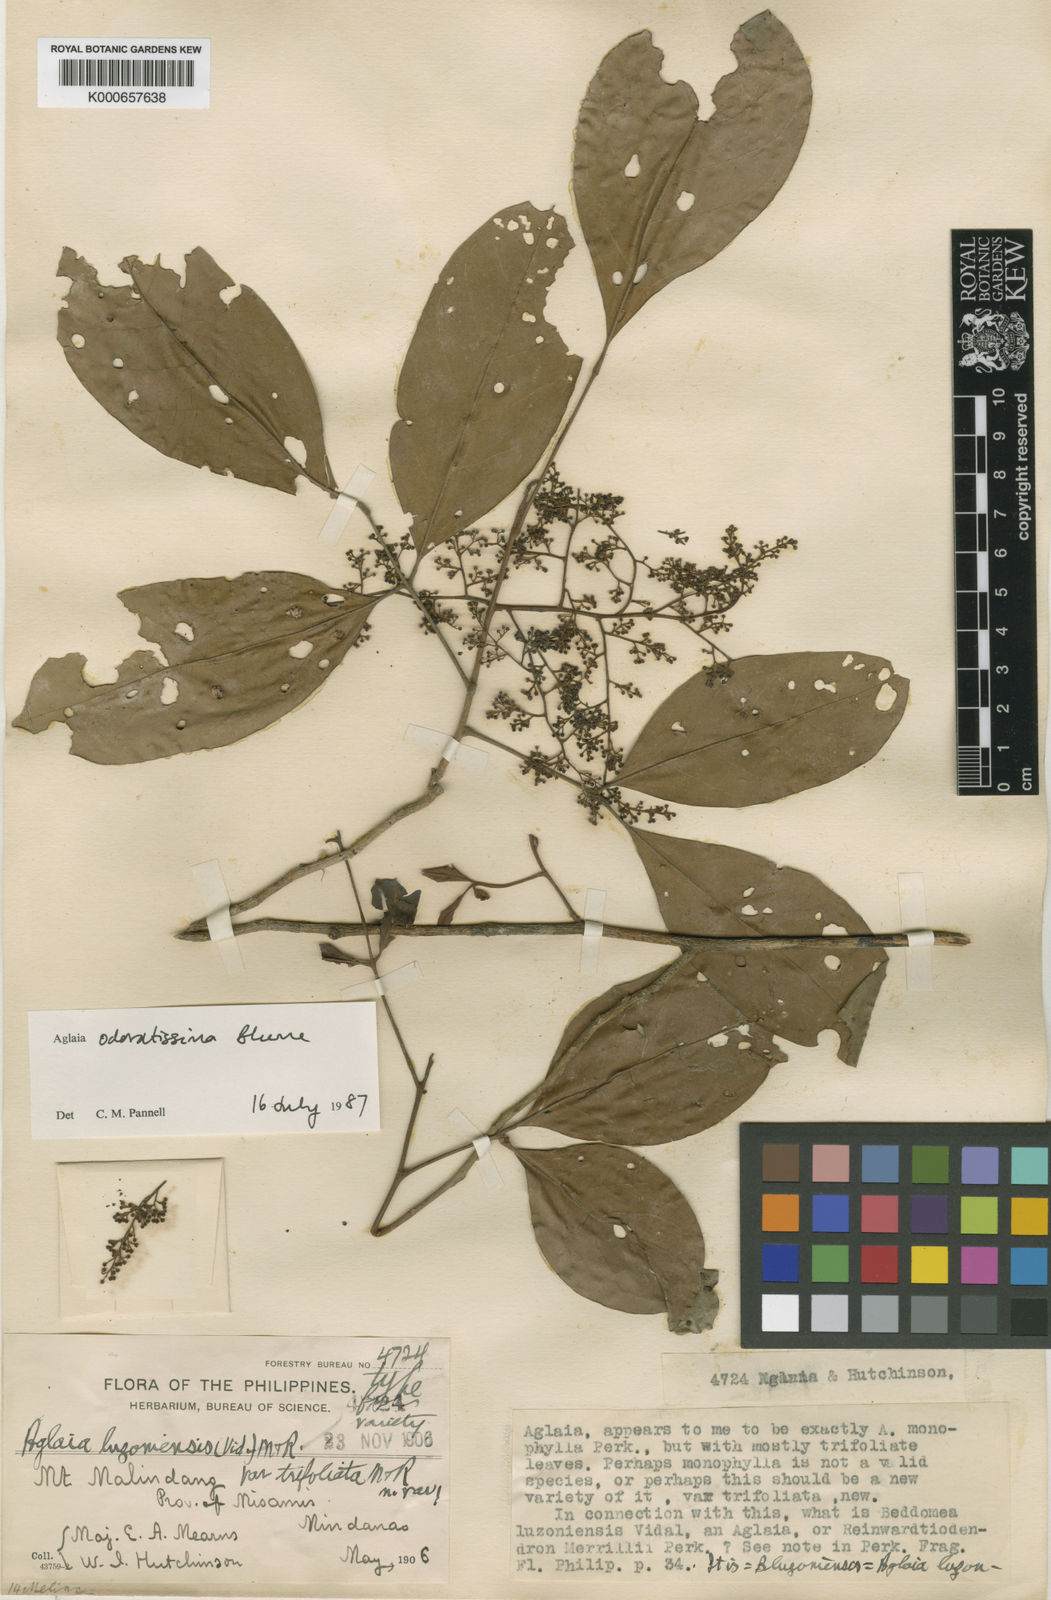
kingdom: Plantae
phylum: Tracheophyta
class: Magnoliopsida
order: Sapindales
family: Meliaceae
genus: Aglaia
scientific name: Aglaia luzoniensis
